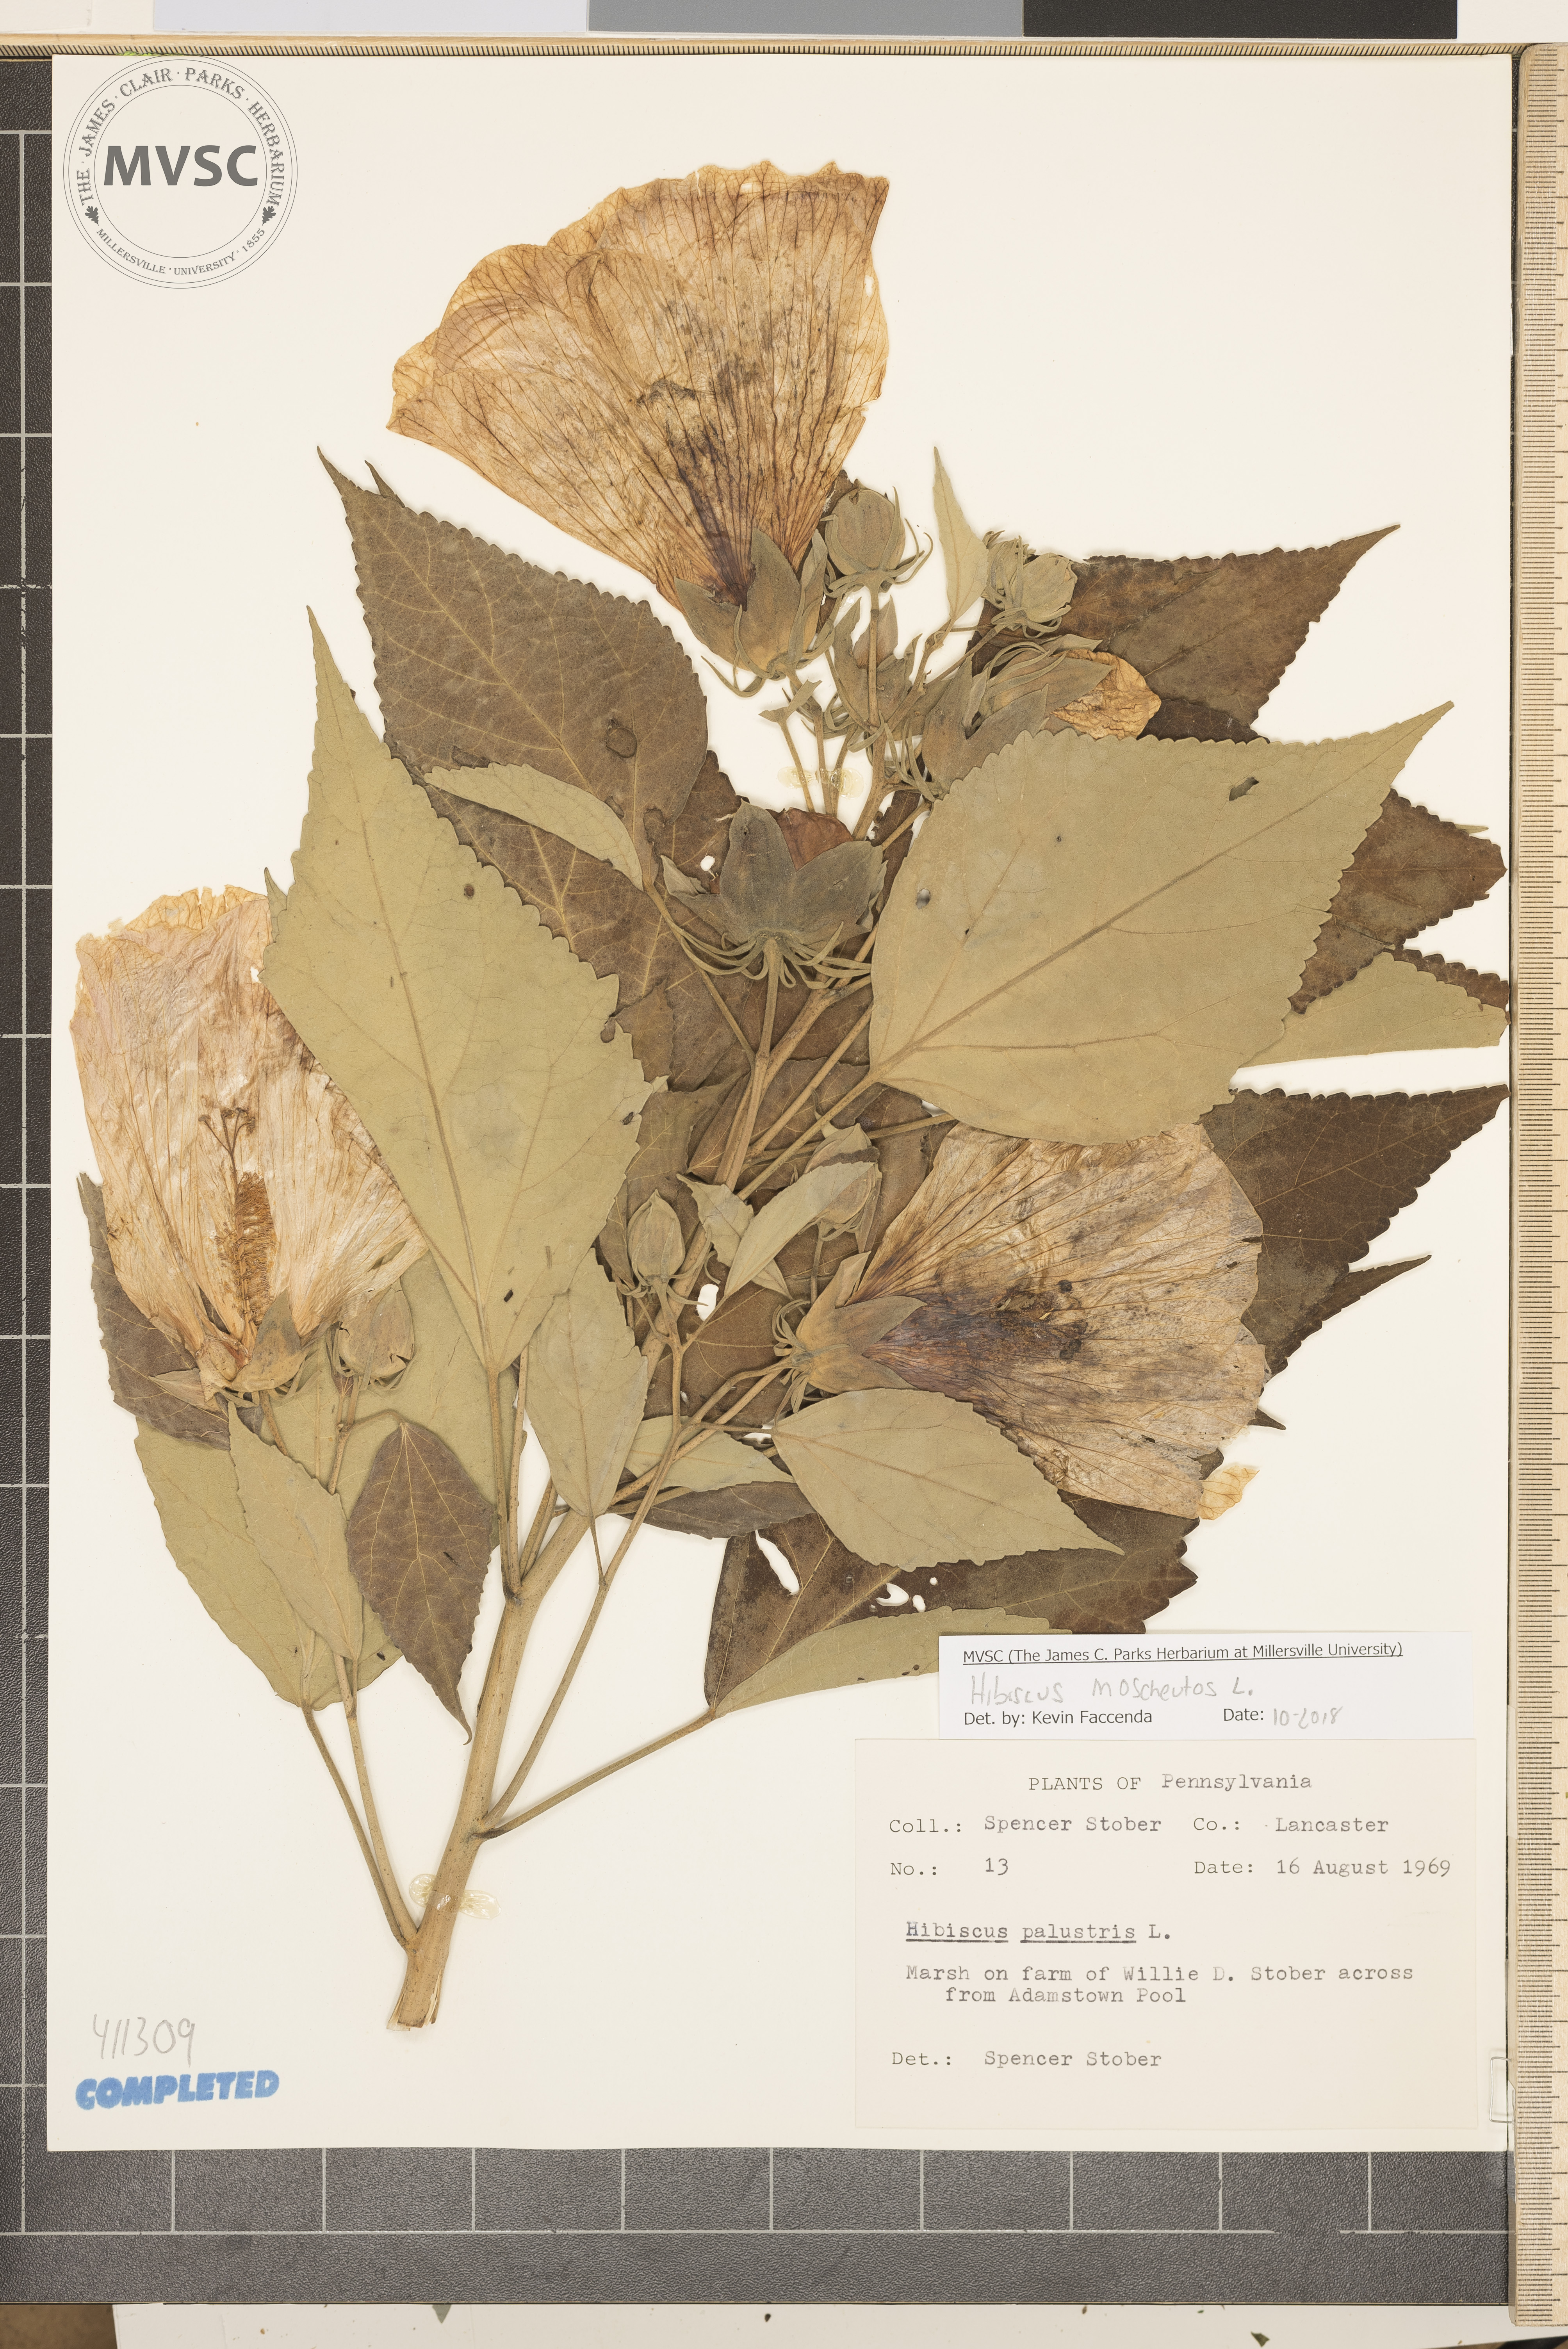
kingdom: Plantae
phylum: Tracheophyta
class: Magnoliopsida
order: Malvales
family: Malvaceae
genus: Hibiscus
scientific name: Hibiscus moscheutos
